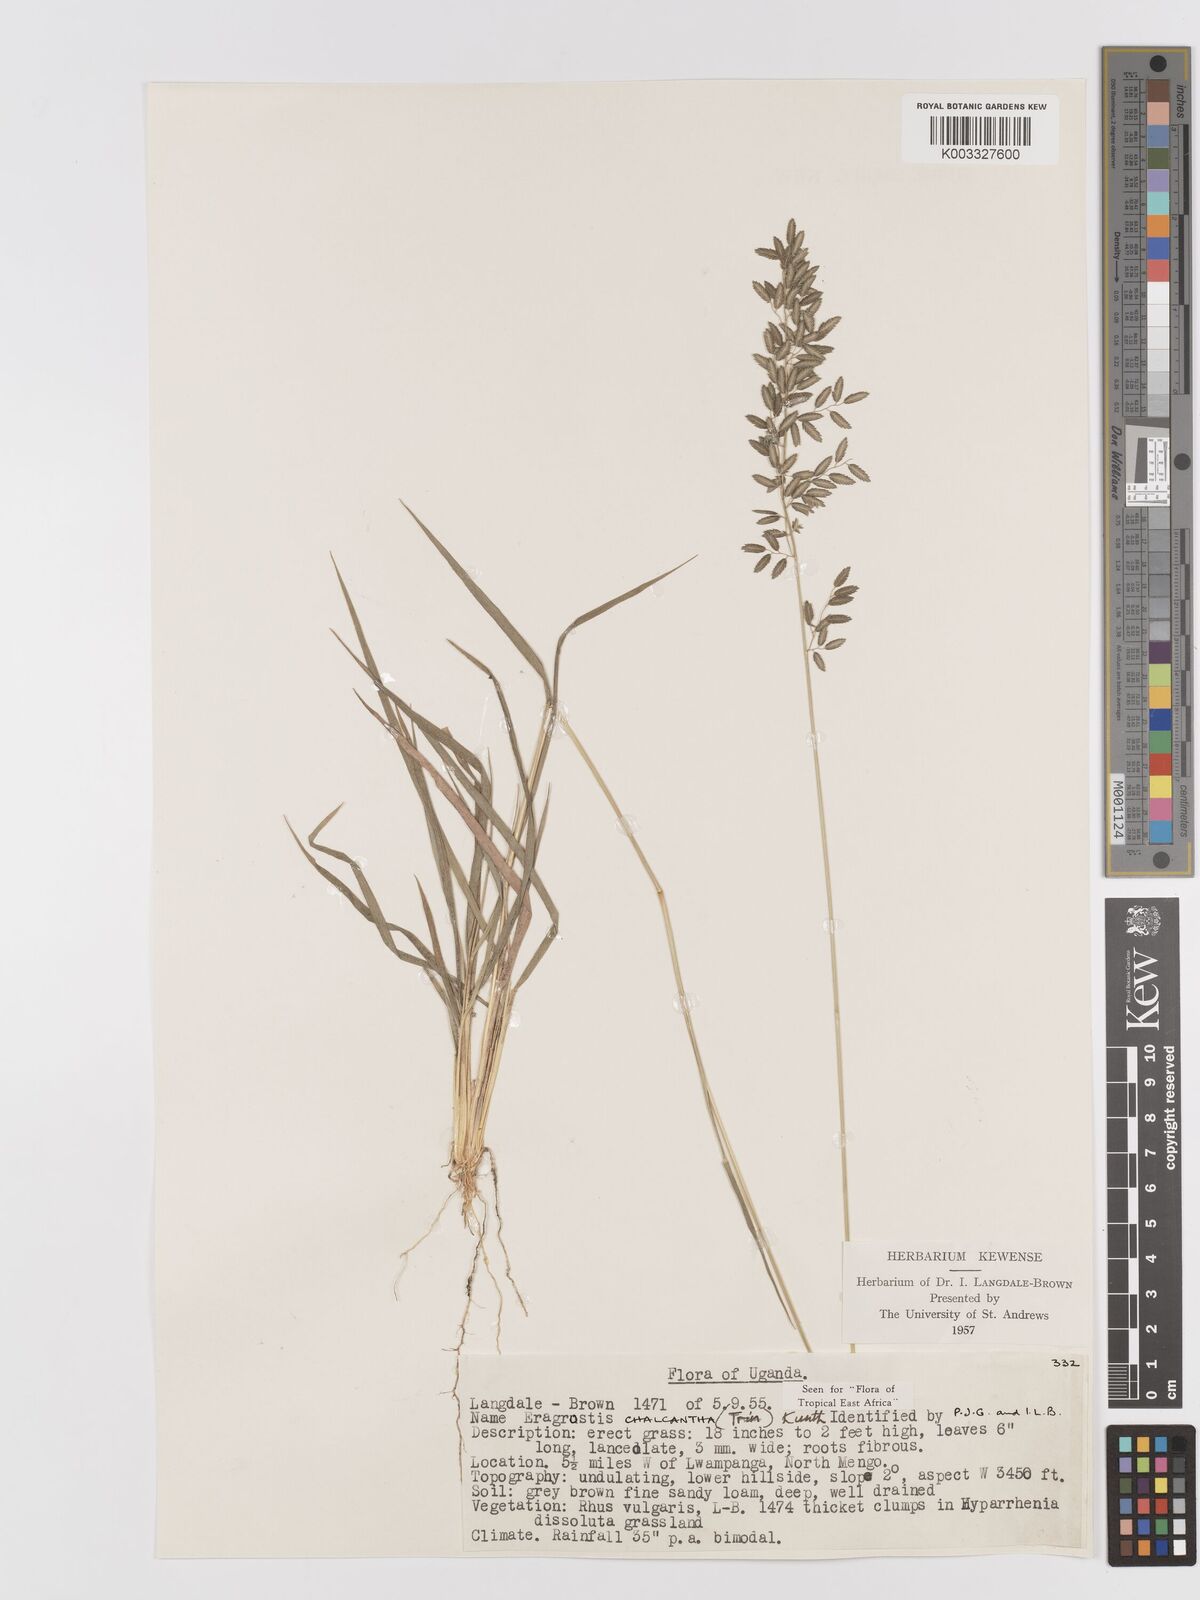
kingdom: Plantae
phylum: Tracheophyta
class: Liliopsida
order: Poales
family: Poaceae
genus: Eragrostis
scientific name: Eragrostis racemosa
